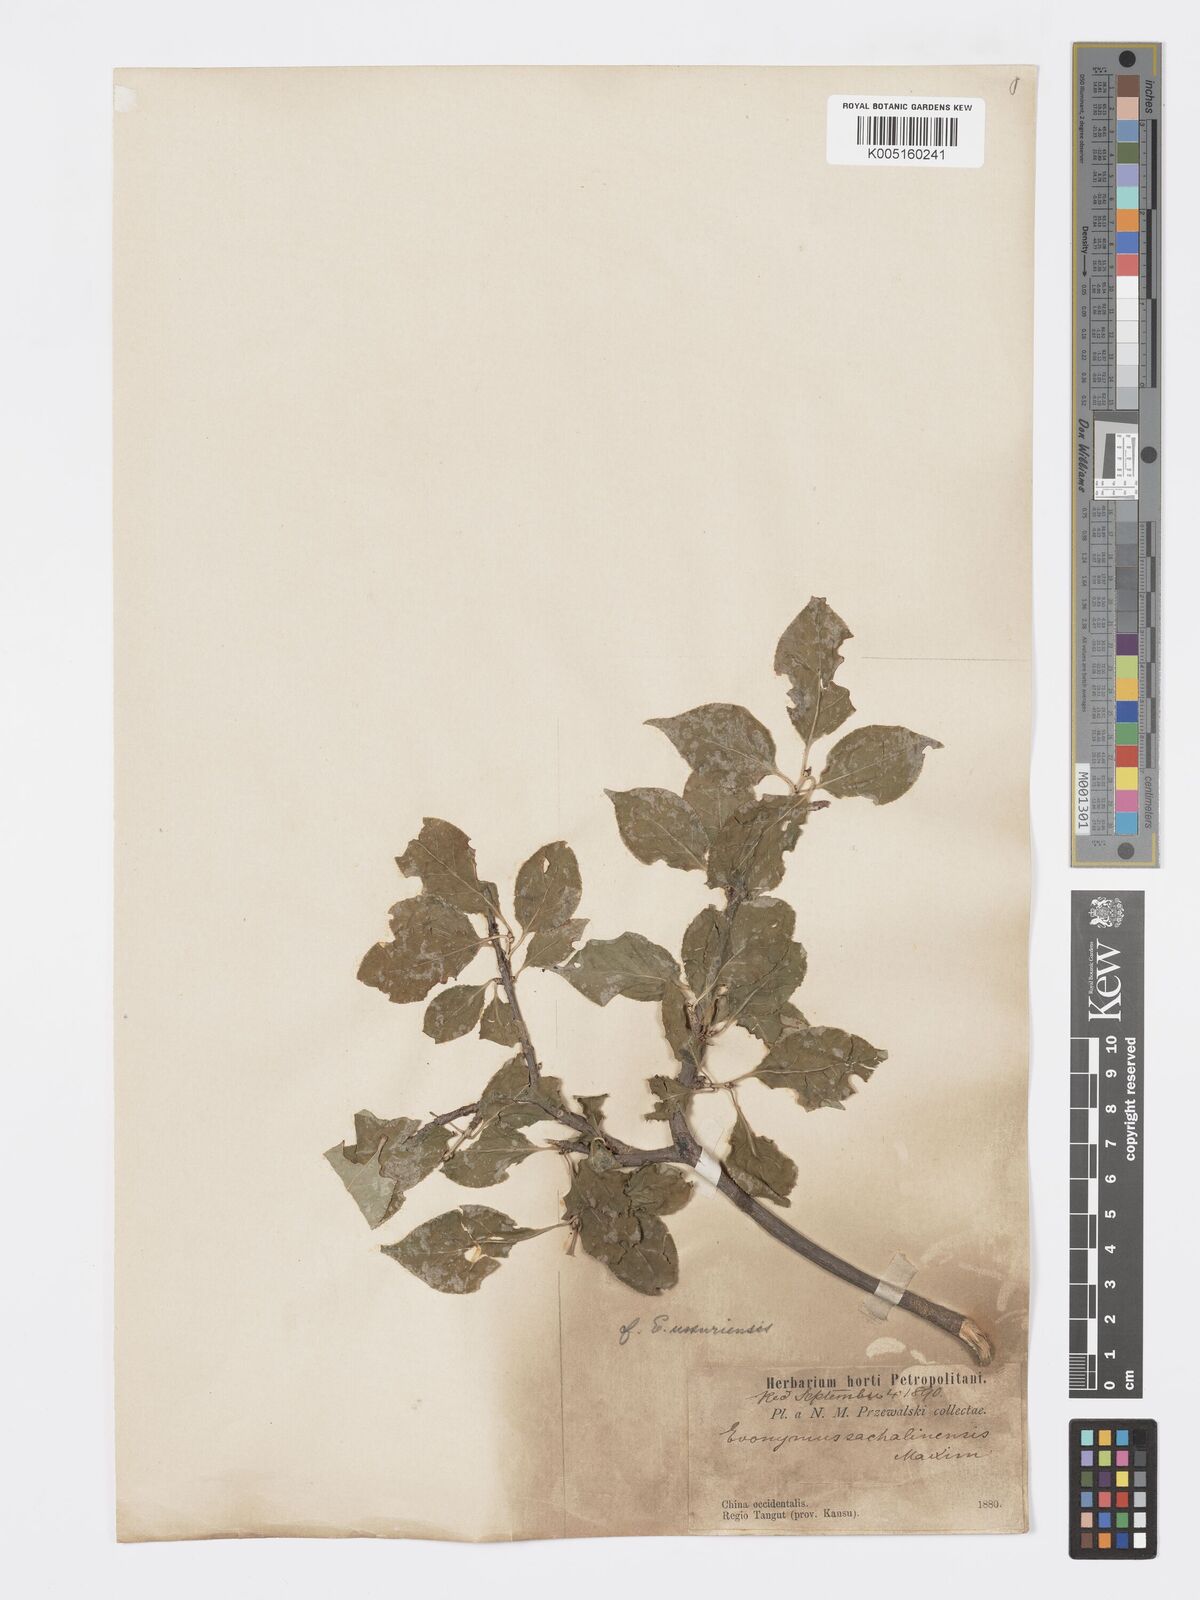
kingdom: Plantae
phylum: Tracheophyta
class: Magnoliopsida
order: Celastrales
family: Celastraceae
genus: Euonymus
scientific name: Euonymus giraldii
